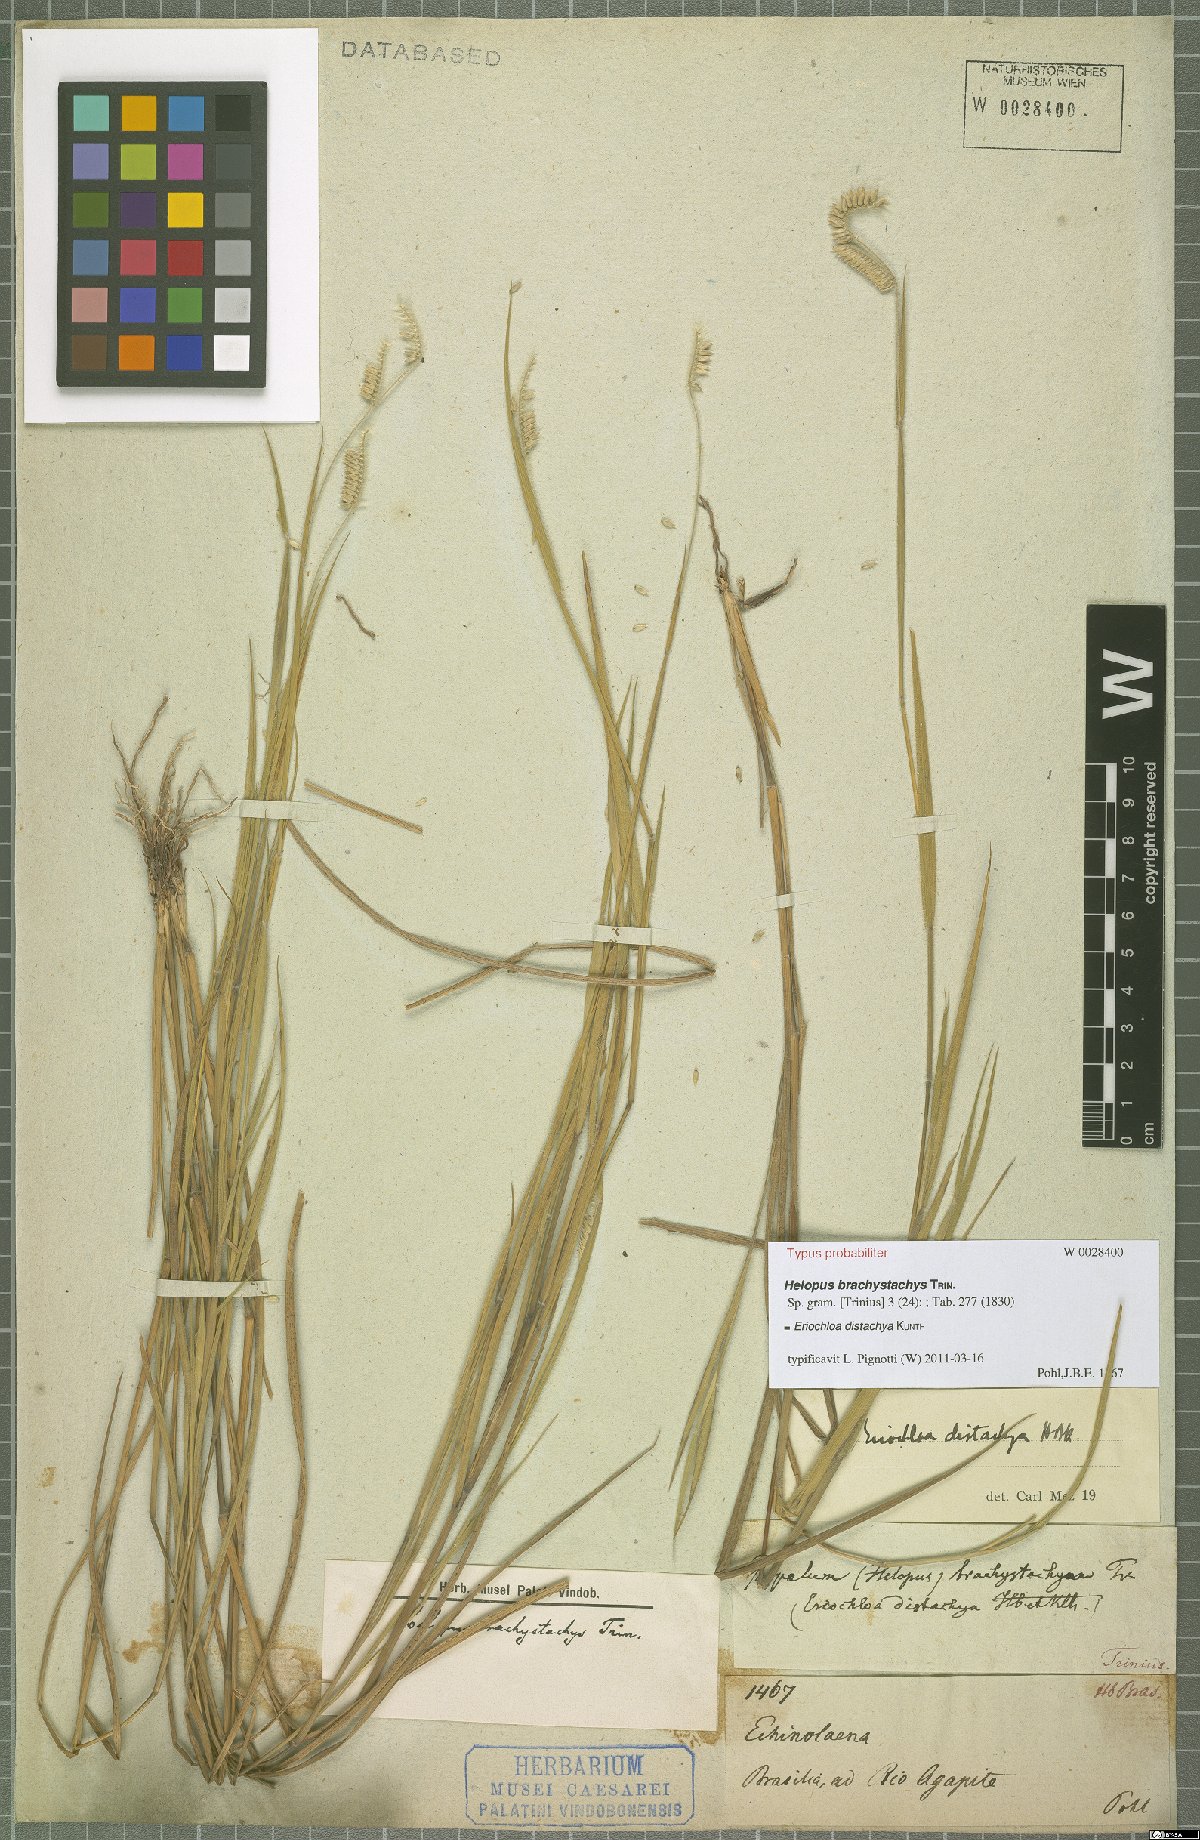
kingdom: Plantae
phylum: Tracheophyta
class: Liliopsida
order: Poales
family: Poaceae
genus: Eriochloa
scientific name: Eriochloa distachya
